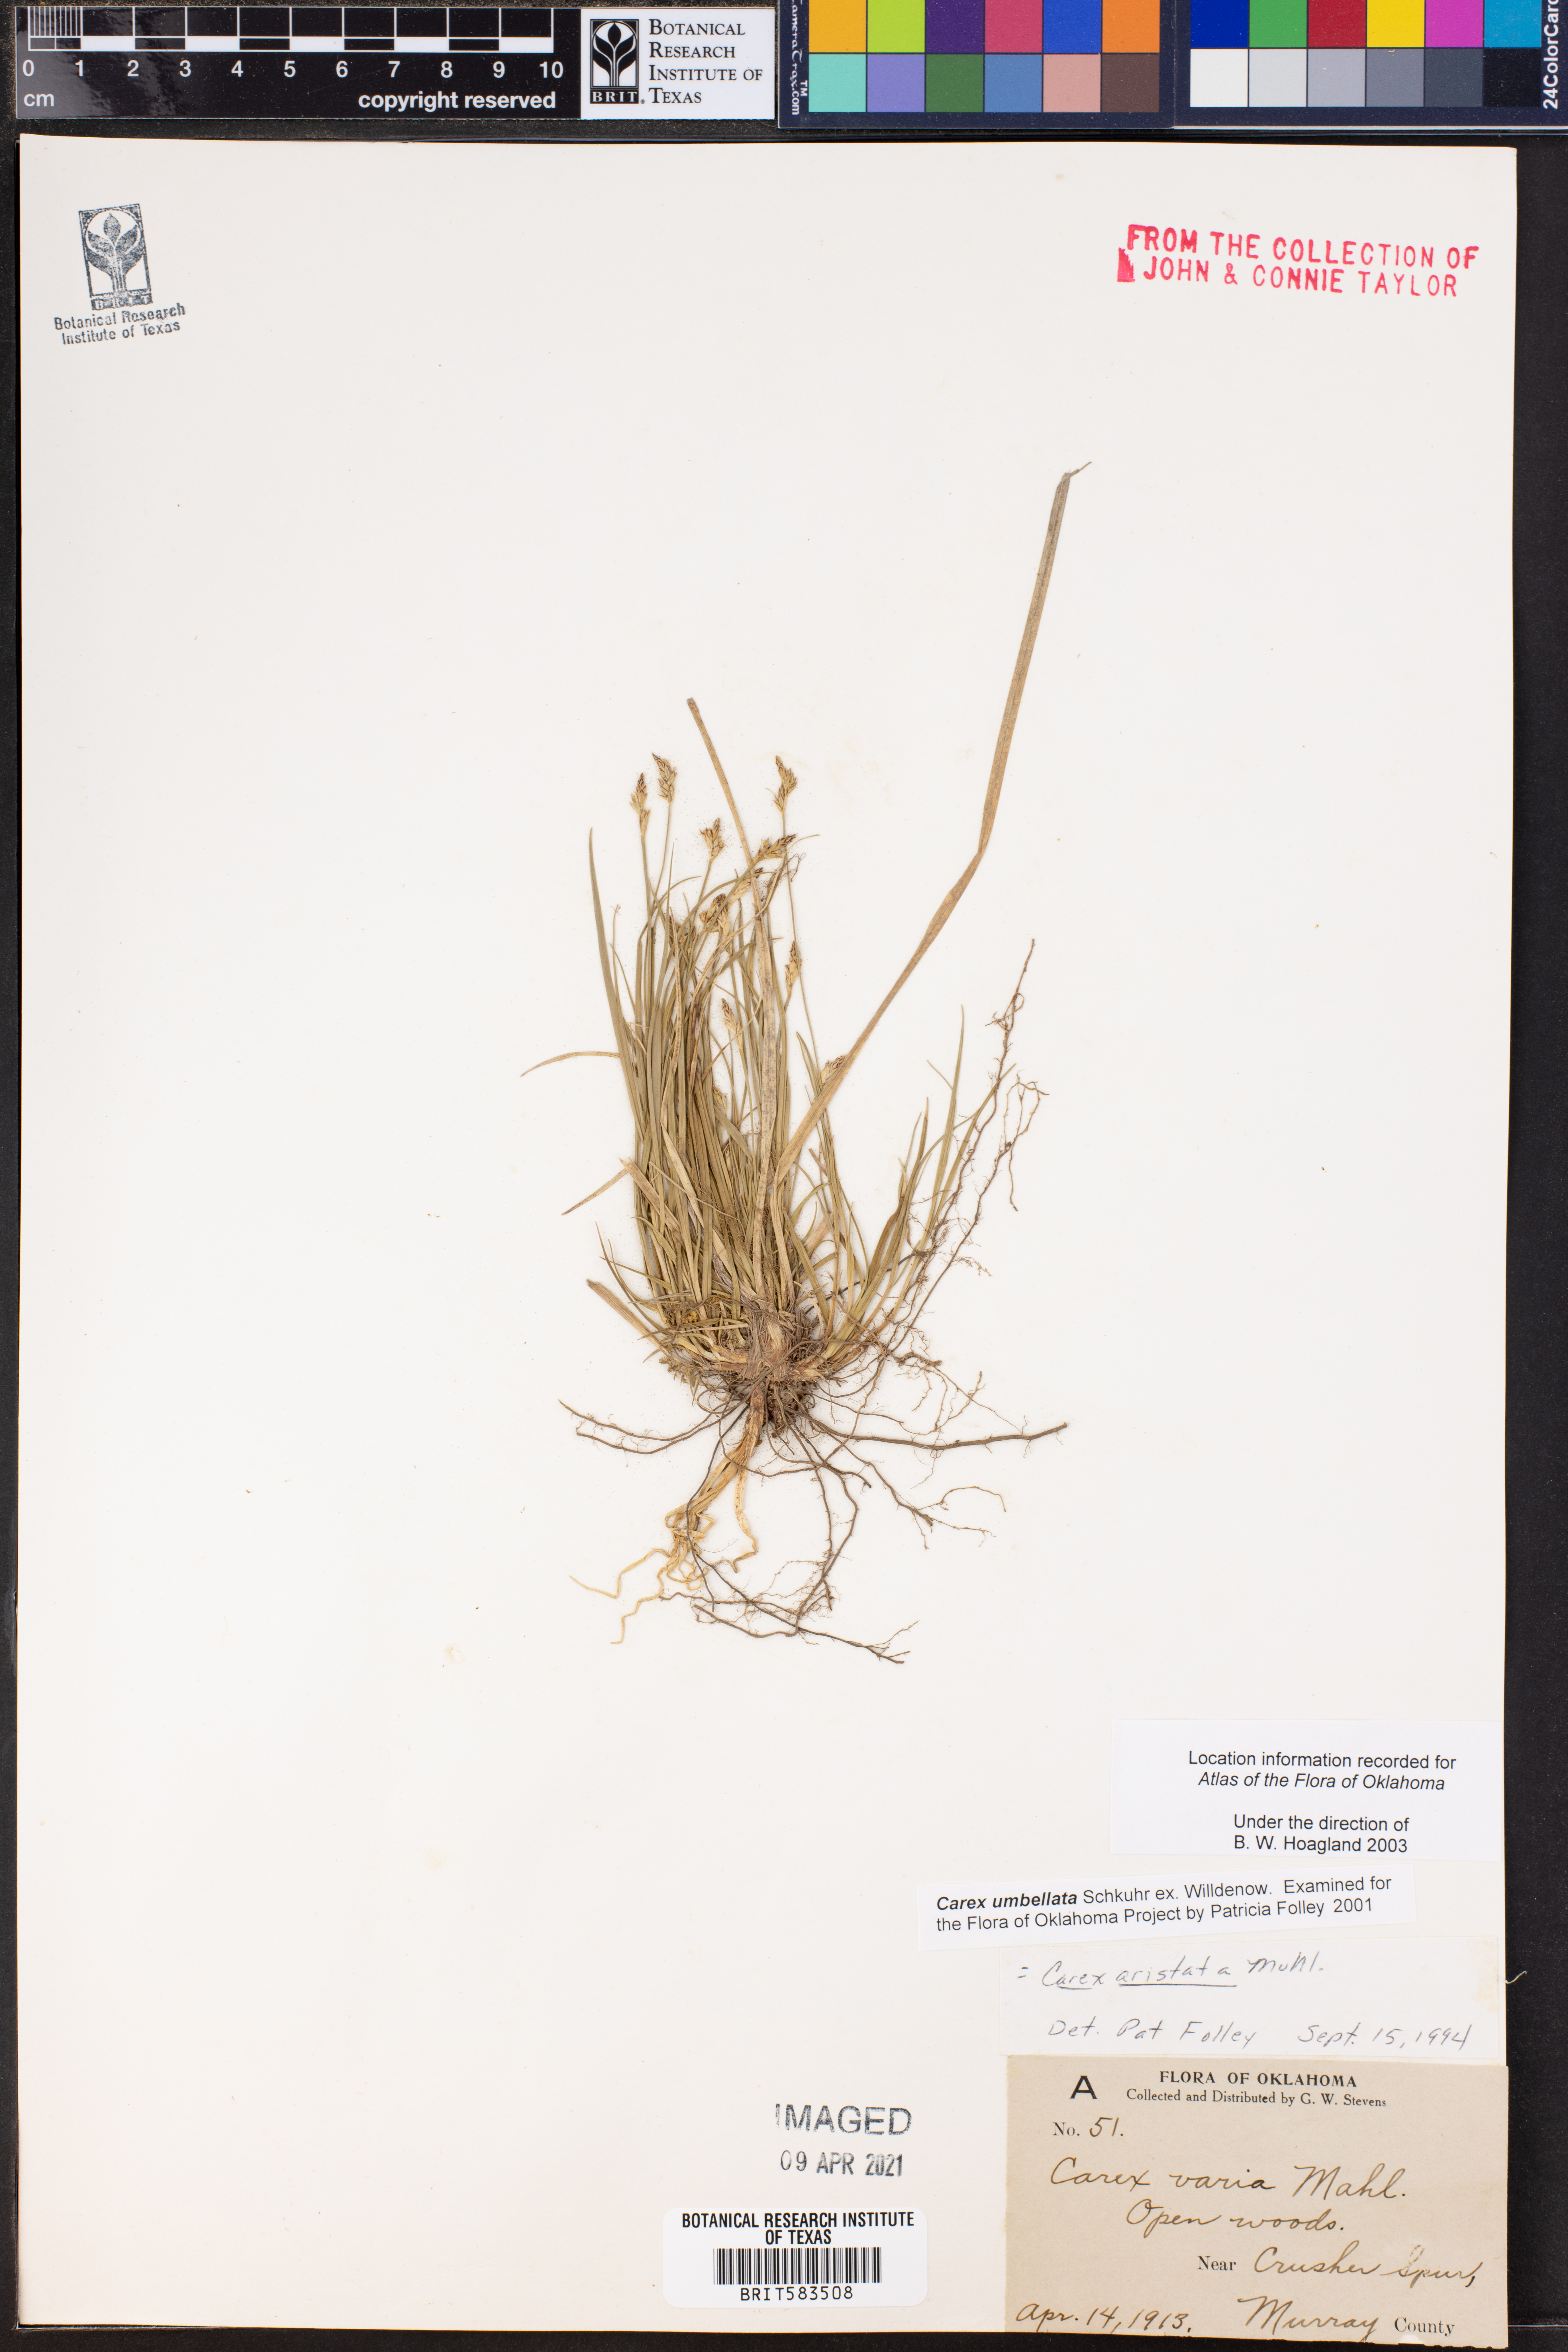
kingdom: Plantae
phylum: Tracheophyta
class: Liliopsida
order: Poales
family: Cyperaceae
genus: Carex
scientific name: Carex umbellata
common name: Early oak sedge
